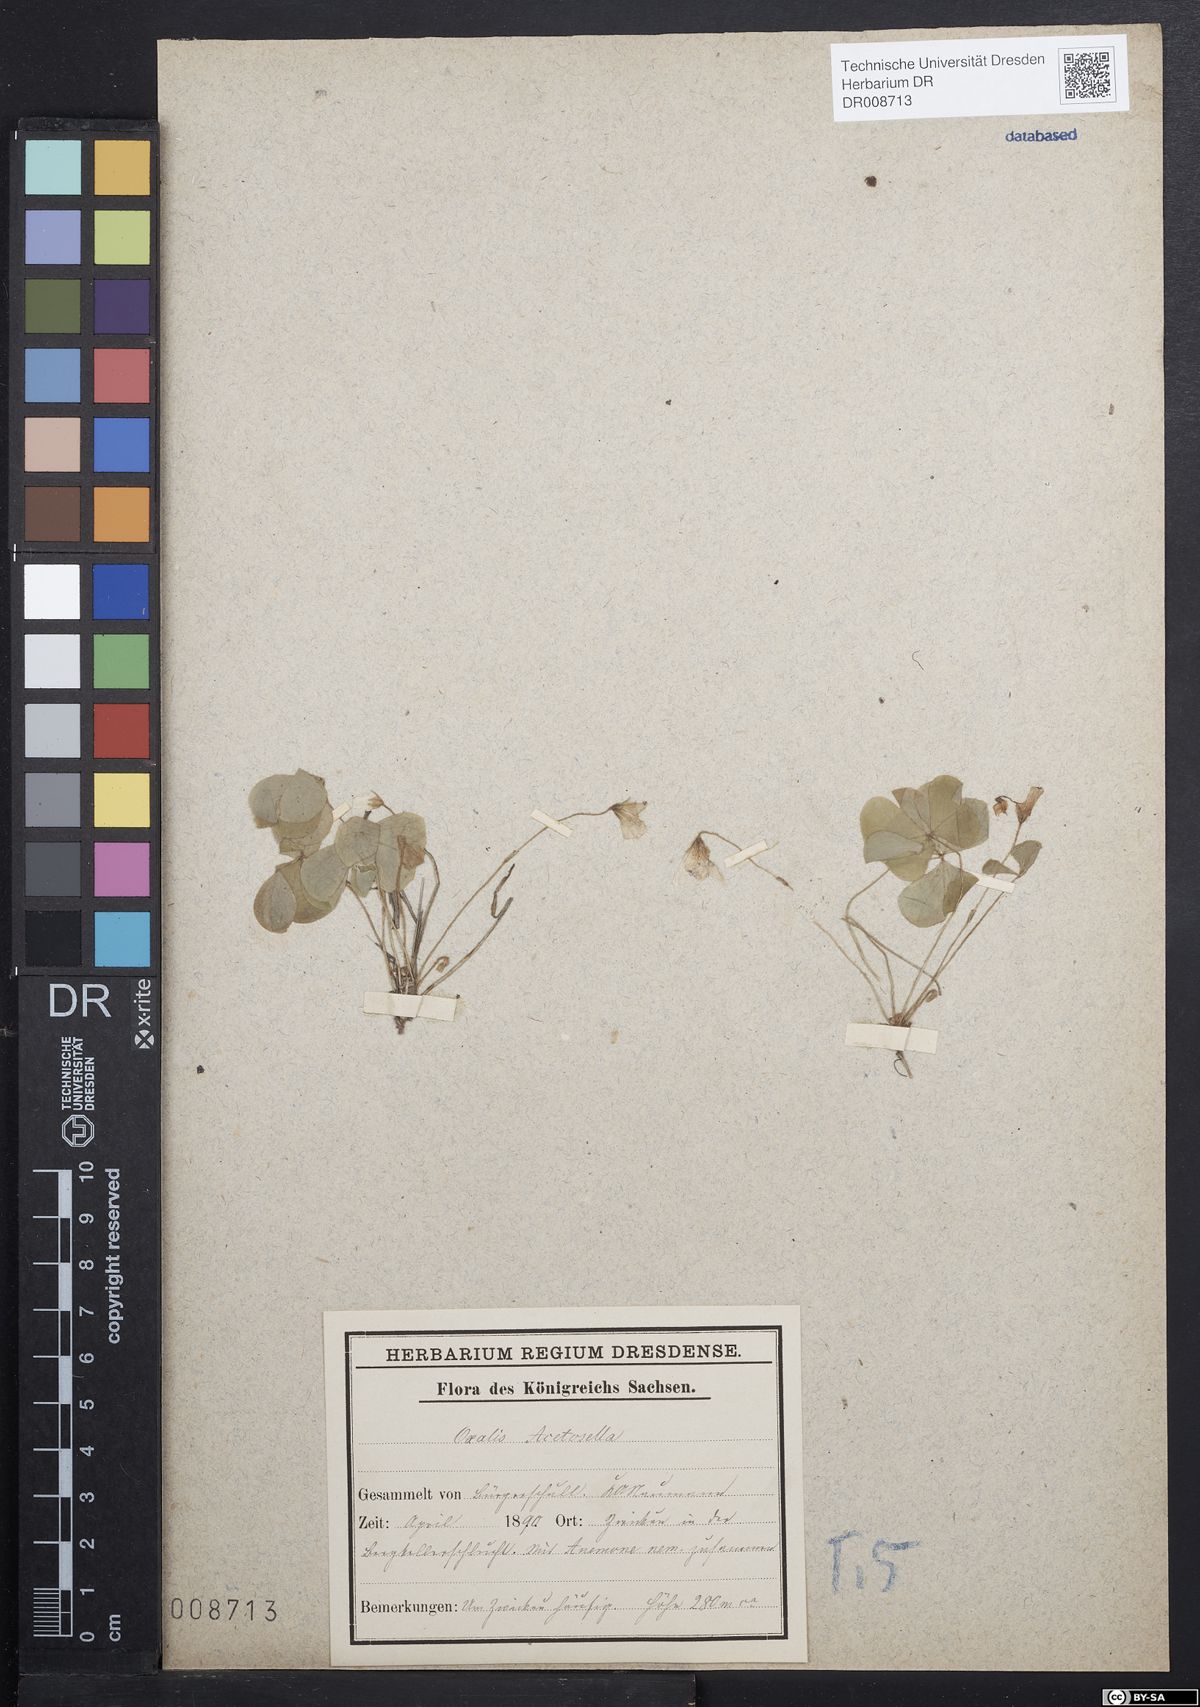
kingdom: Plantae
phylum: Tracheophyta
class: Magnoliopsida
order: Oxalidales
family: Oxalidaceae
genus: Oxalis
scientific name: Oxalis acetosella
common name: Wood-sorrel
